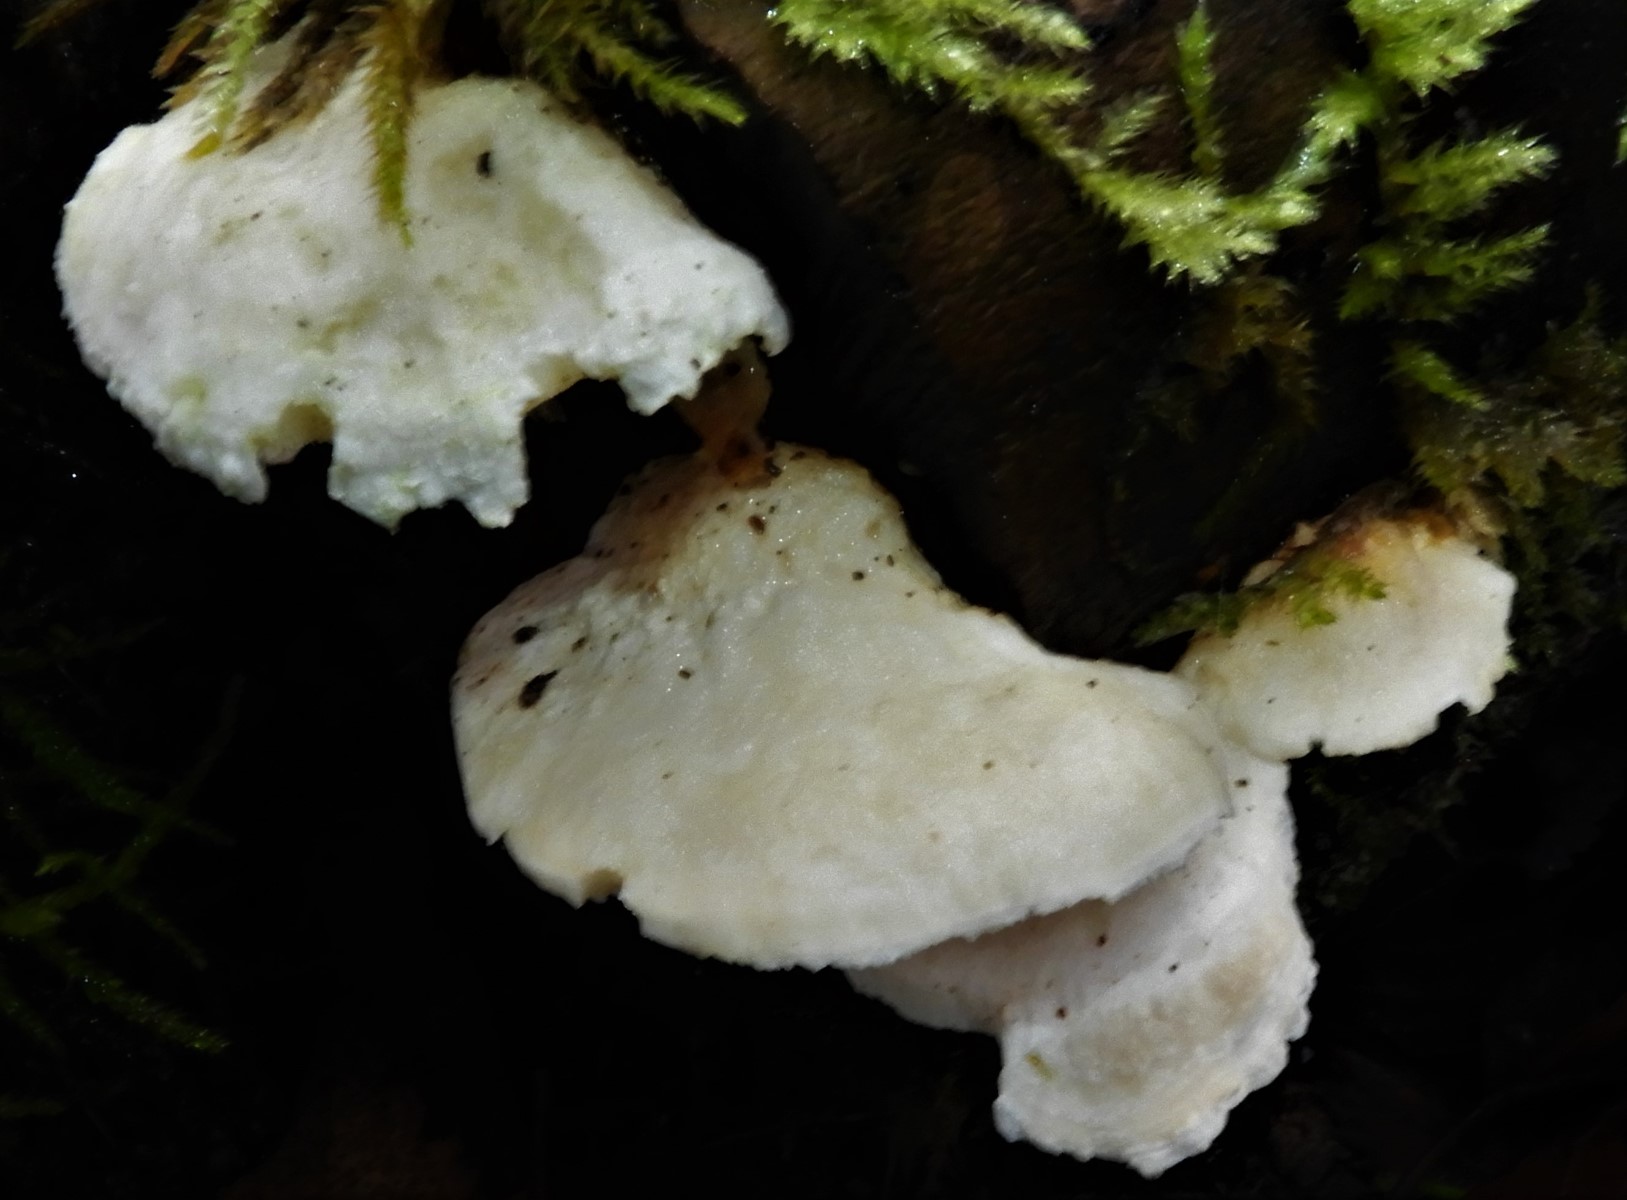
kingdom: Fungi
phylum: Basidiomycota
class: Agaricomycetes
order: Polyporales
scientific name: Polyporales
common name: poresvampordenen
